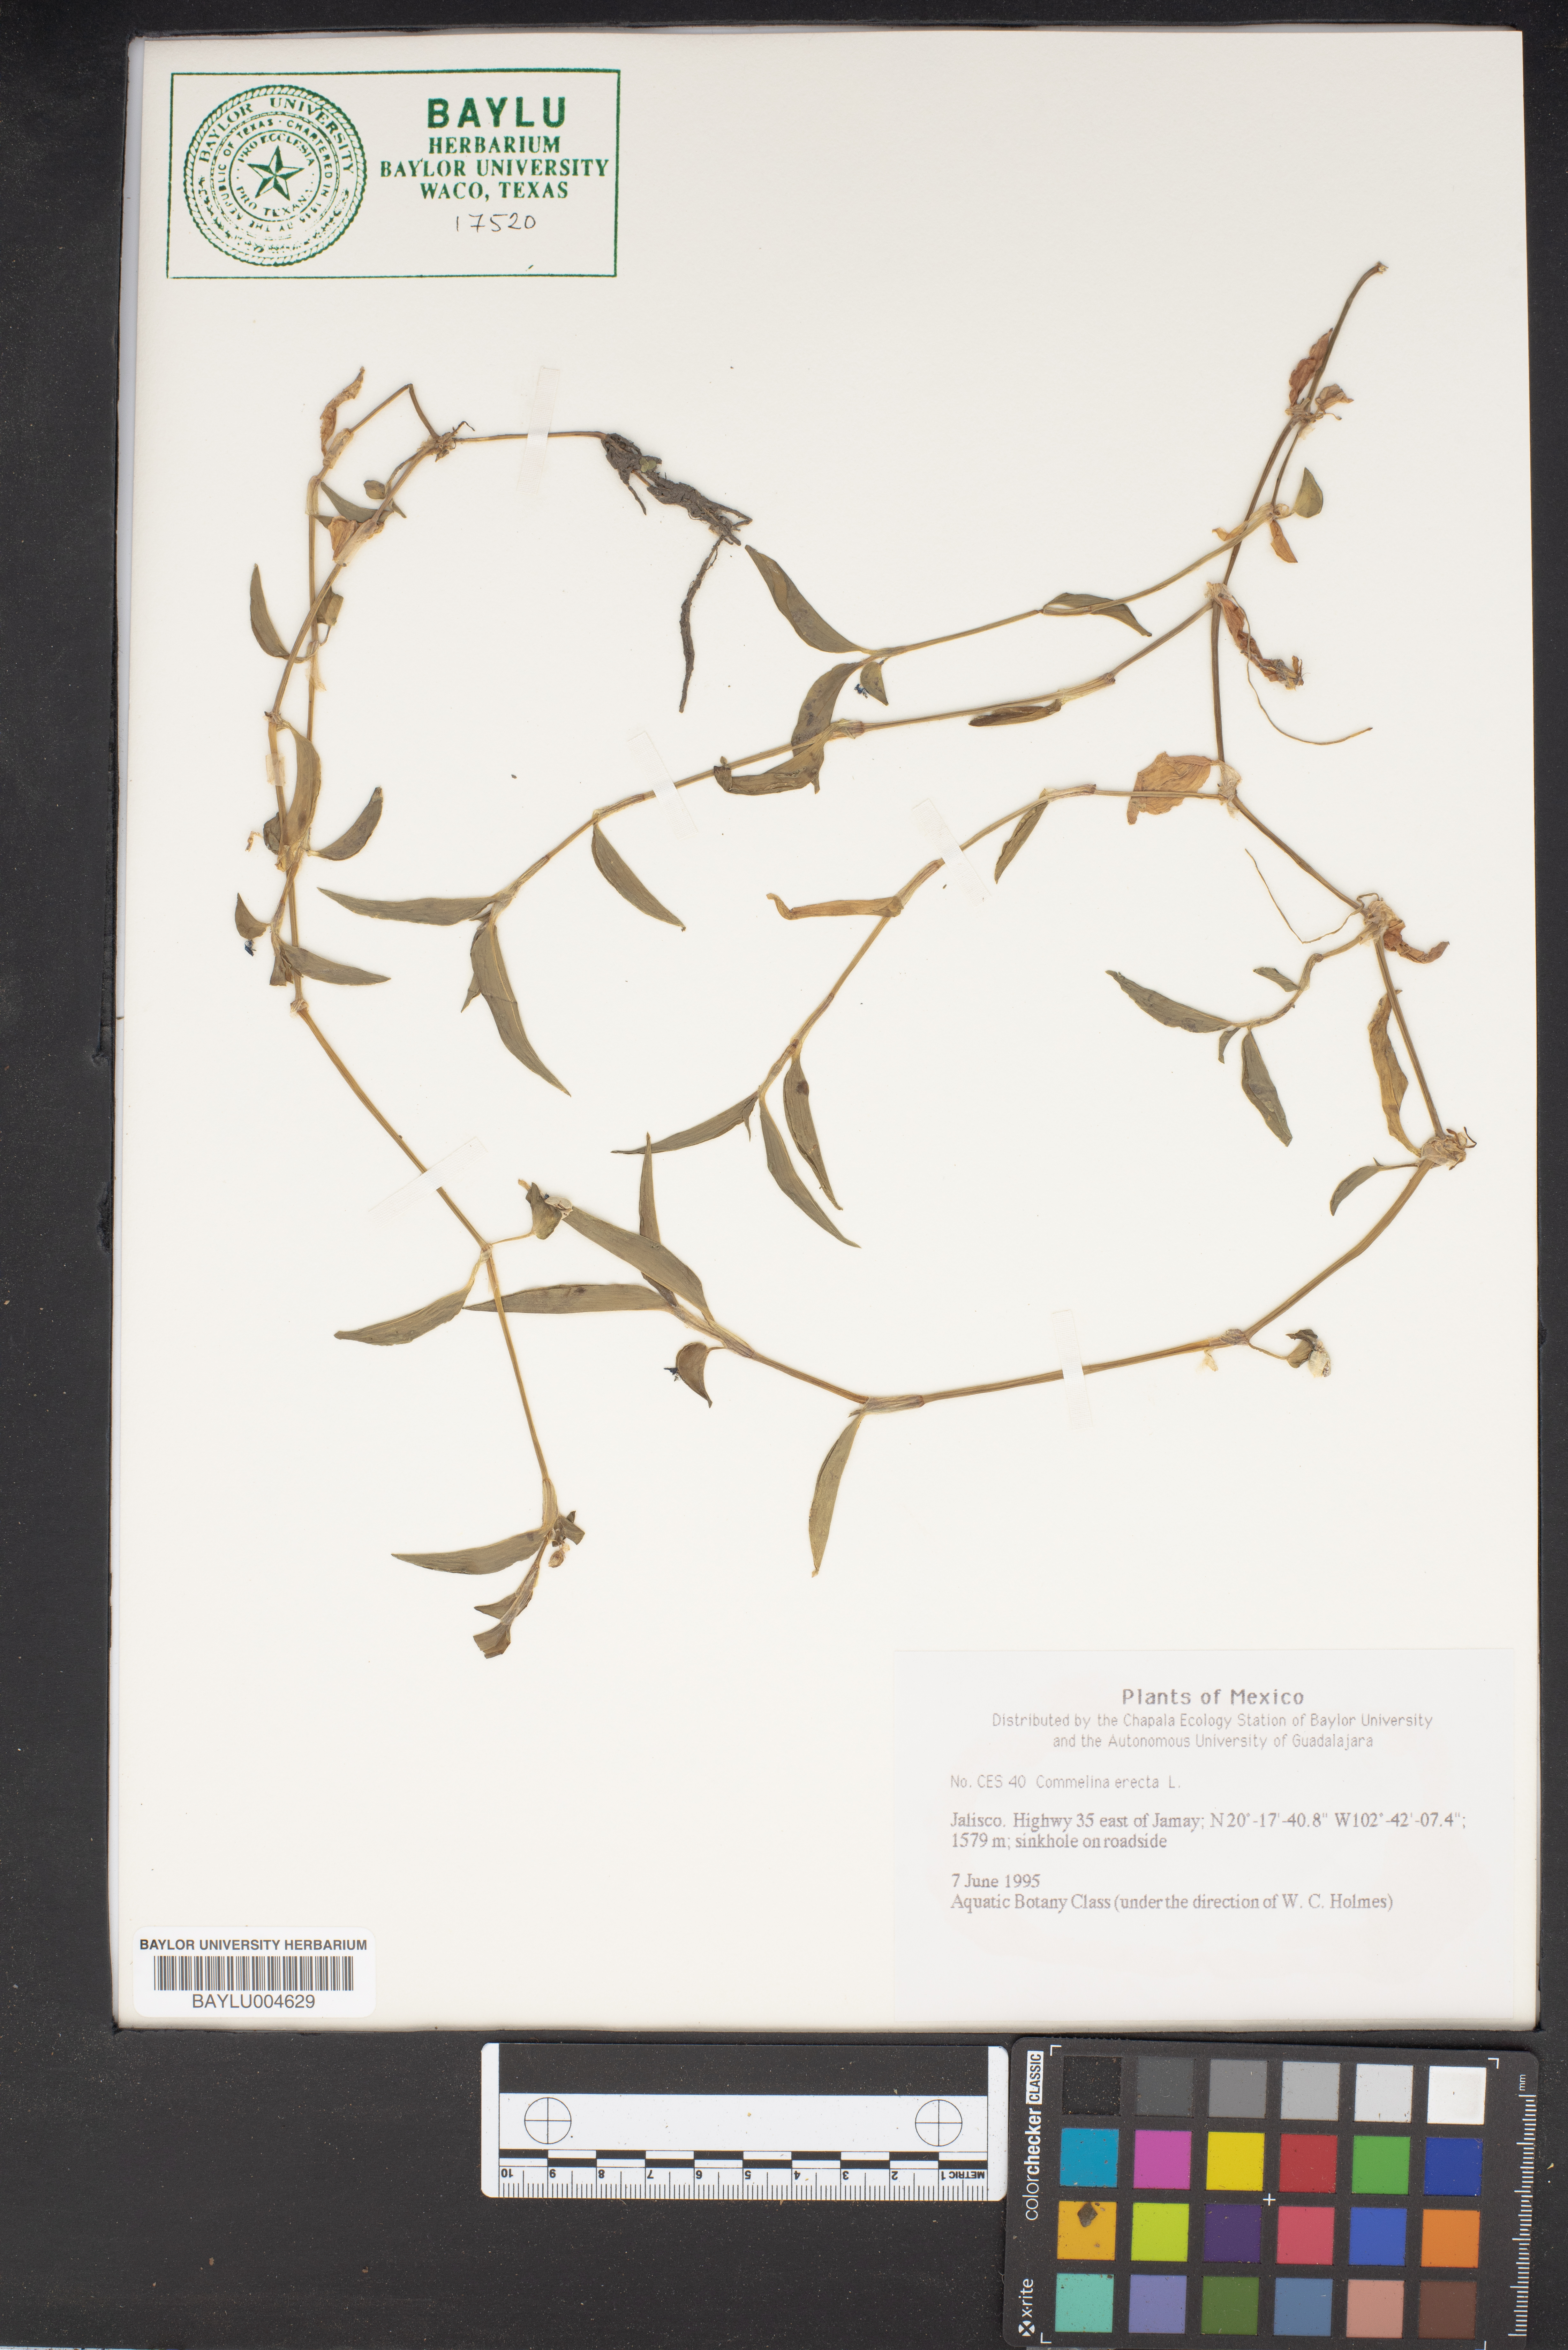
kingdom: Plantae
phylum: Tracheophyta
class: Liliopsida
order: Commelinales
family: Commelinaceae
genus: Commelina
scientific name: Commelina erecta
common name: Blousel blommetjie
